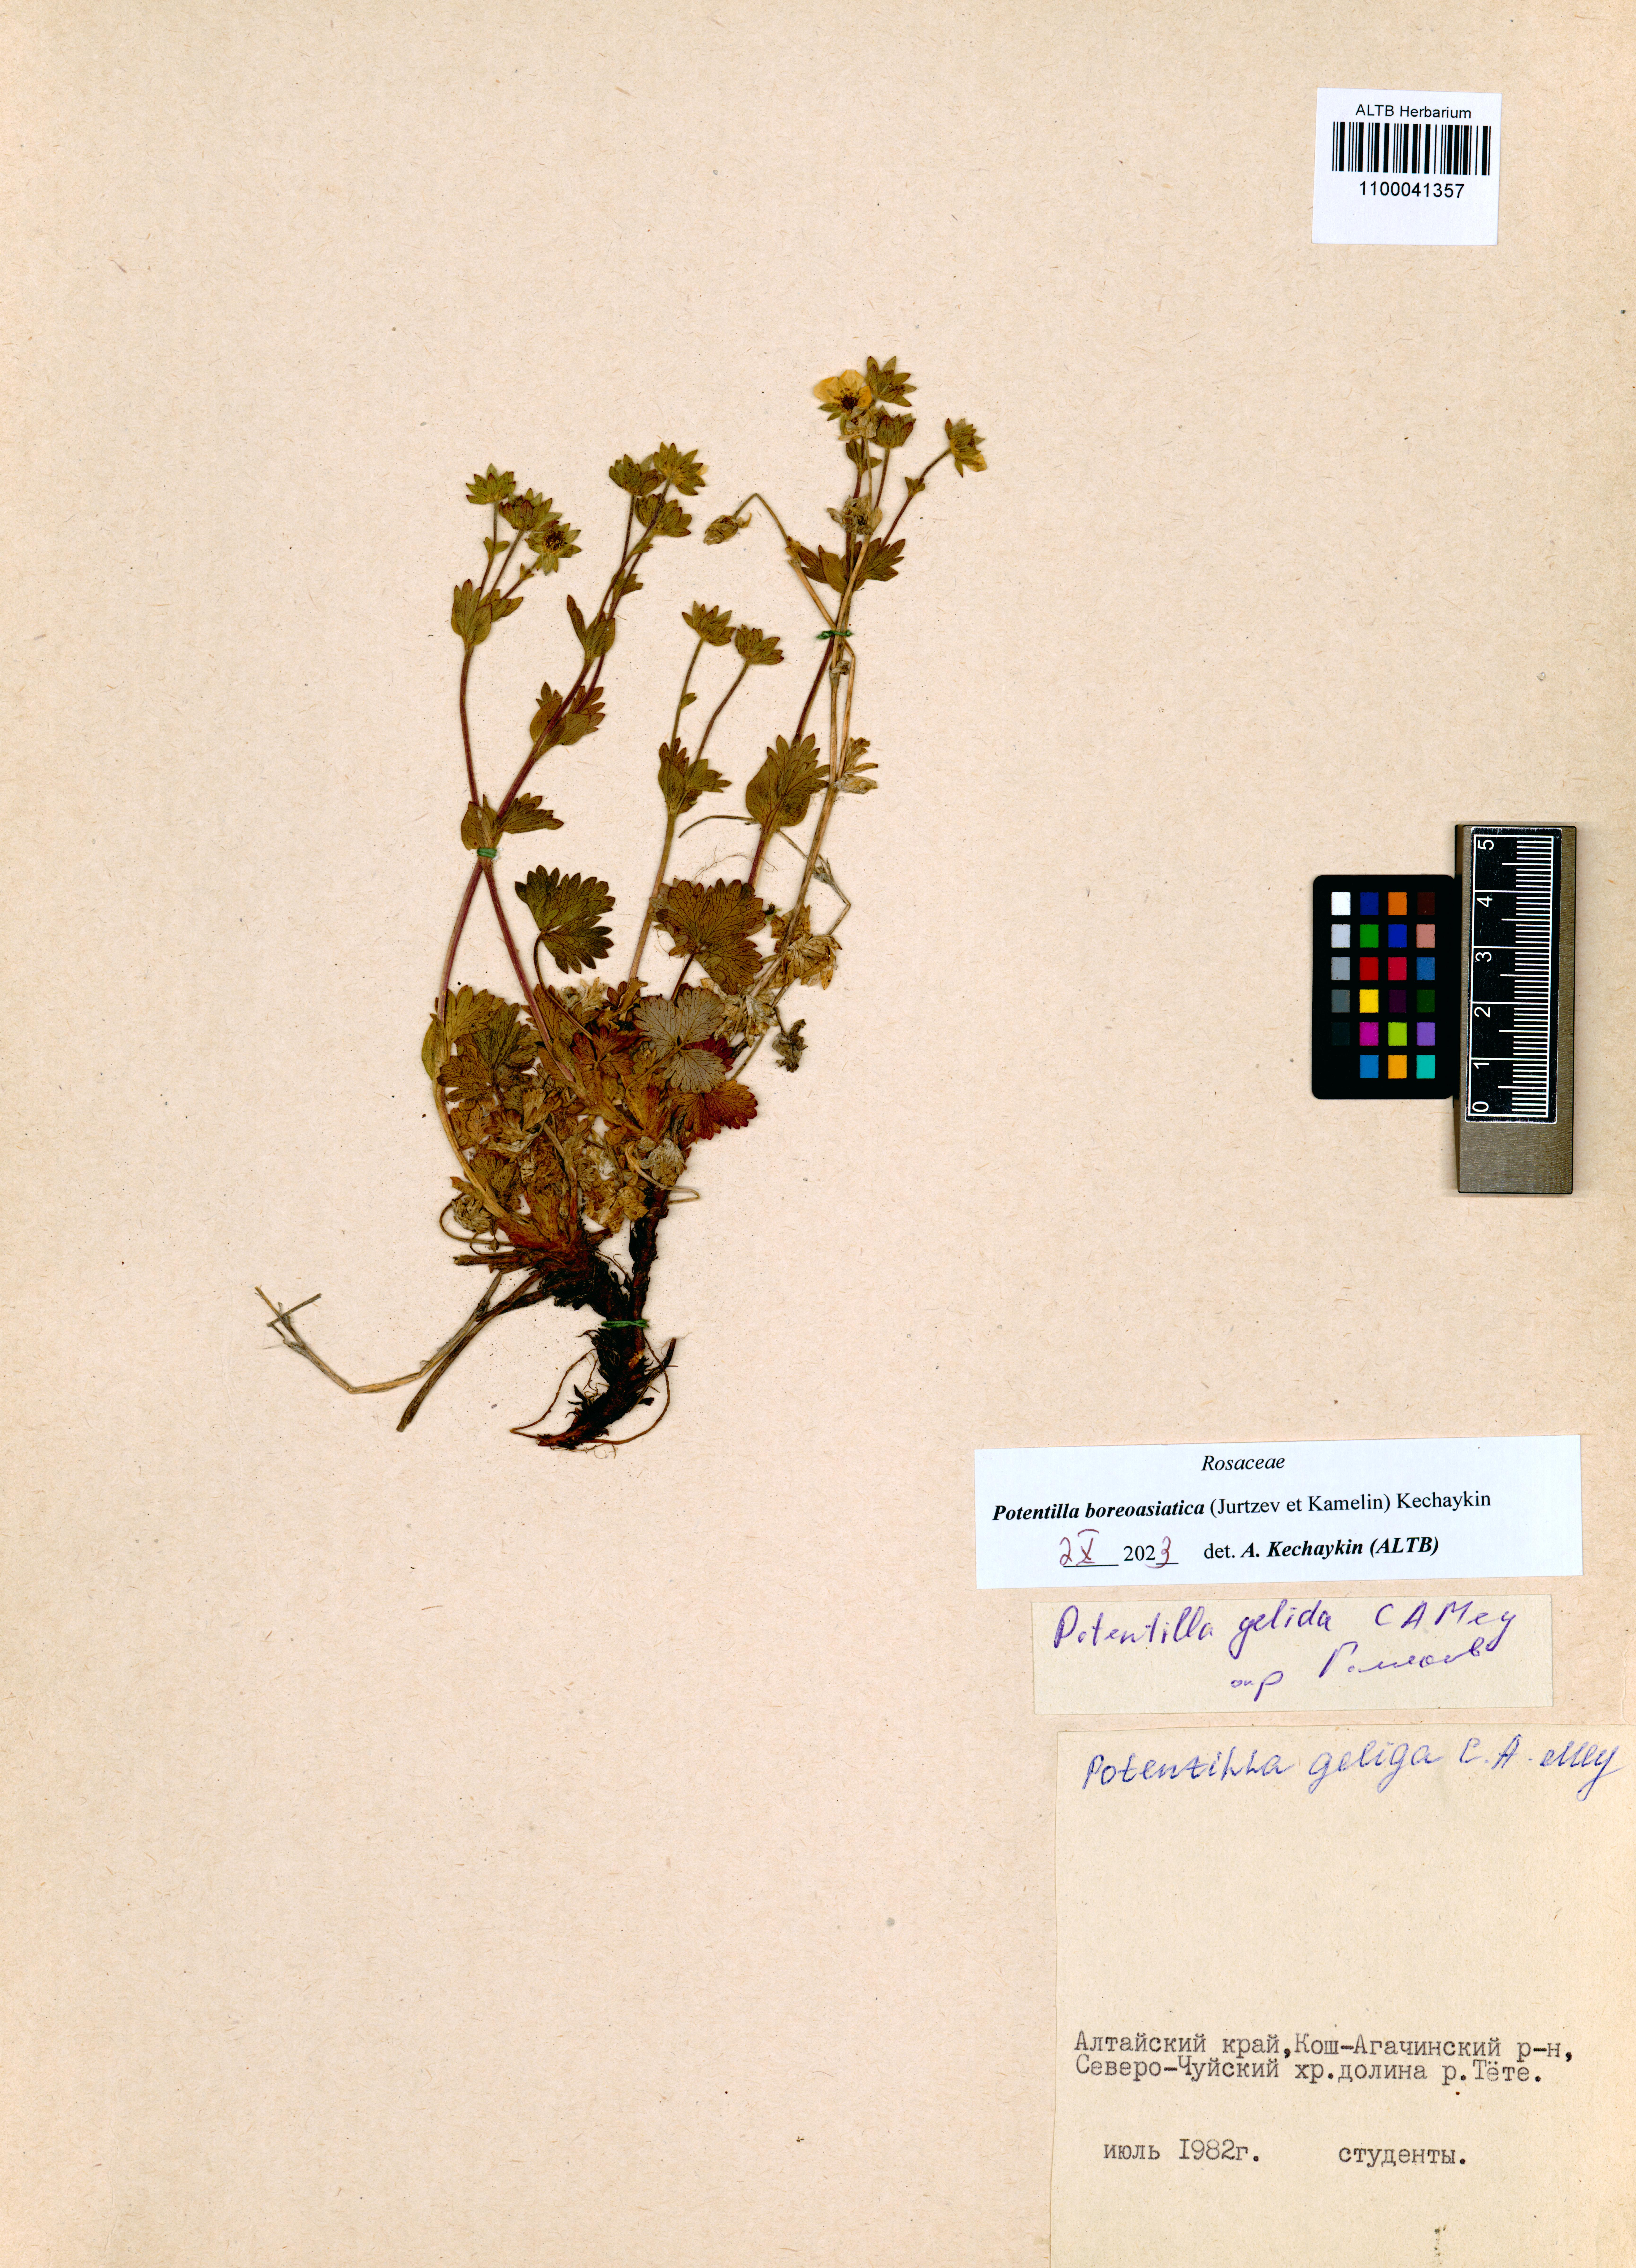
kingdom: Plantae
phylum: Tracheophyta
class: Magnoliopsida
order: Rosales
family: Rosaceae
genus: Potentilla
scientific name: Potentilla
